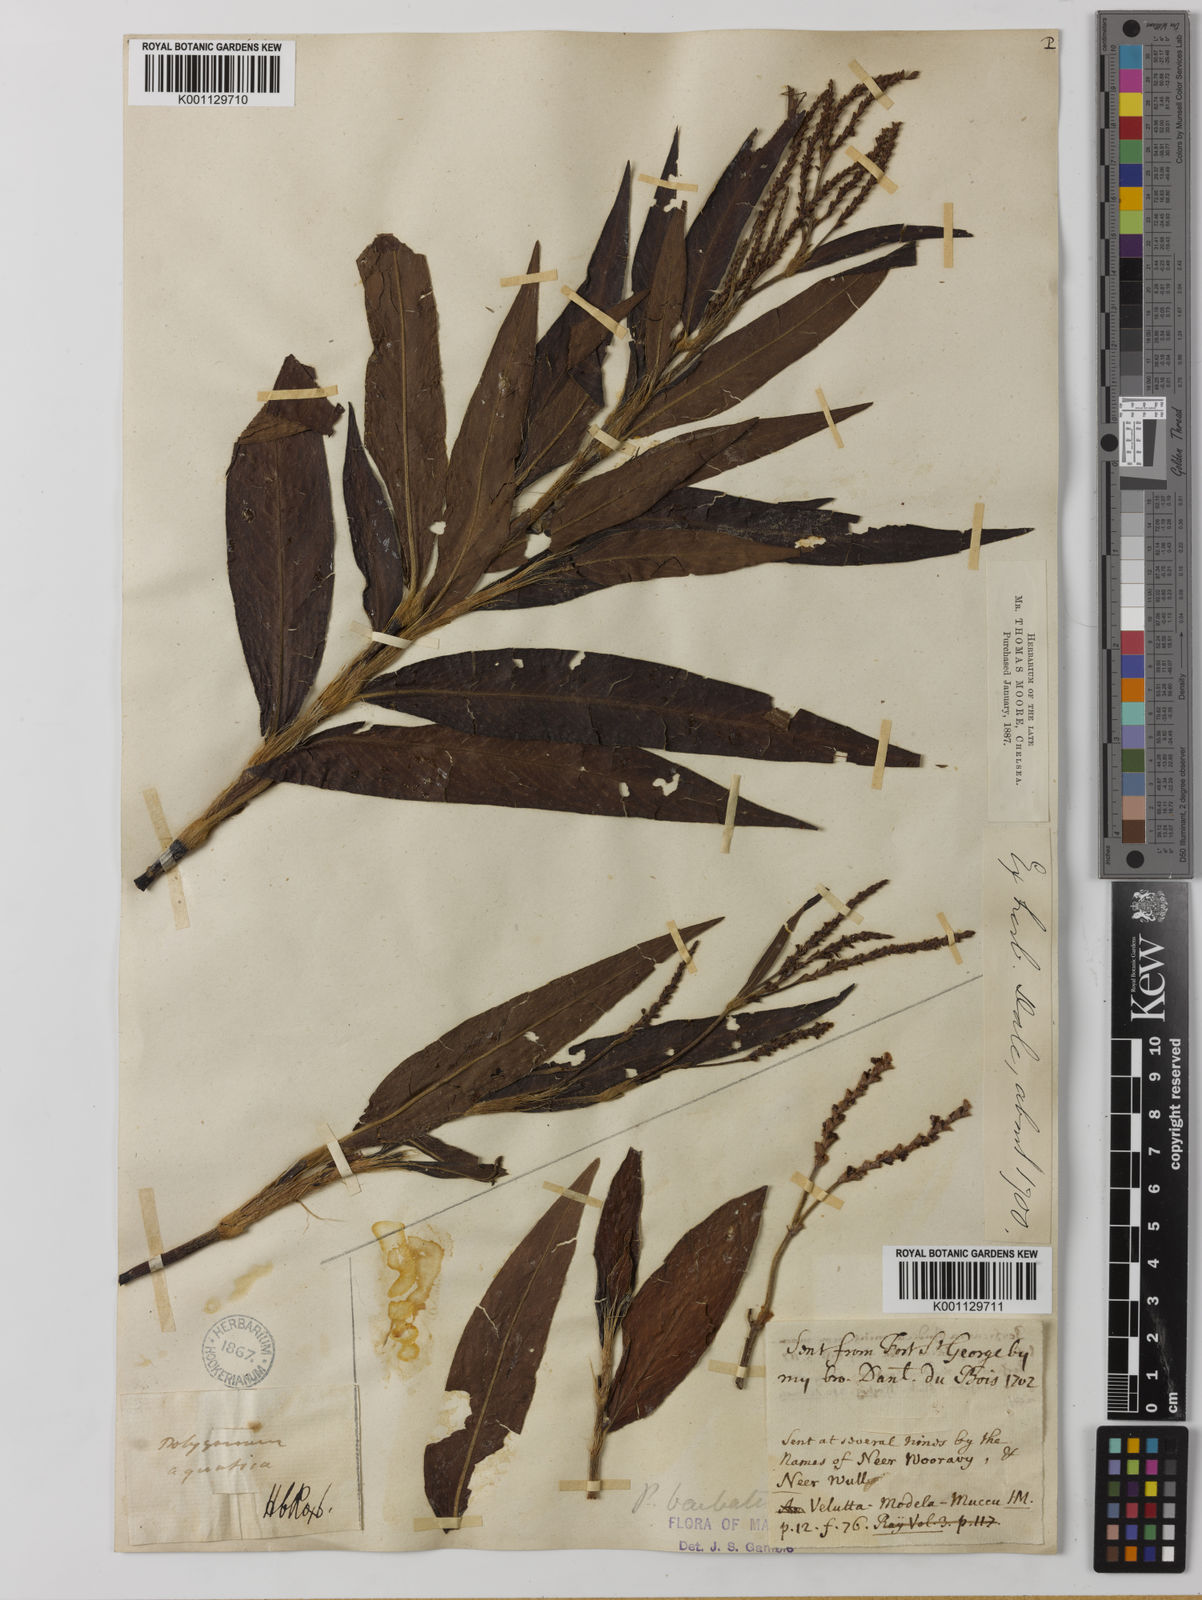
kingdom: Plantae
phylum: Tracheophyta
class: Magnoliopsida
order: Caryophyllales
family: Polygonaceae
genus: Persicaria
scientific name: Persicaria barbata
